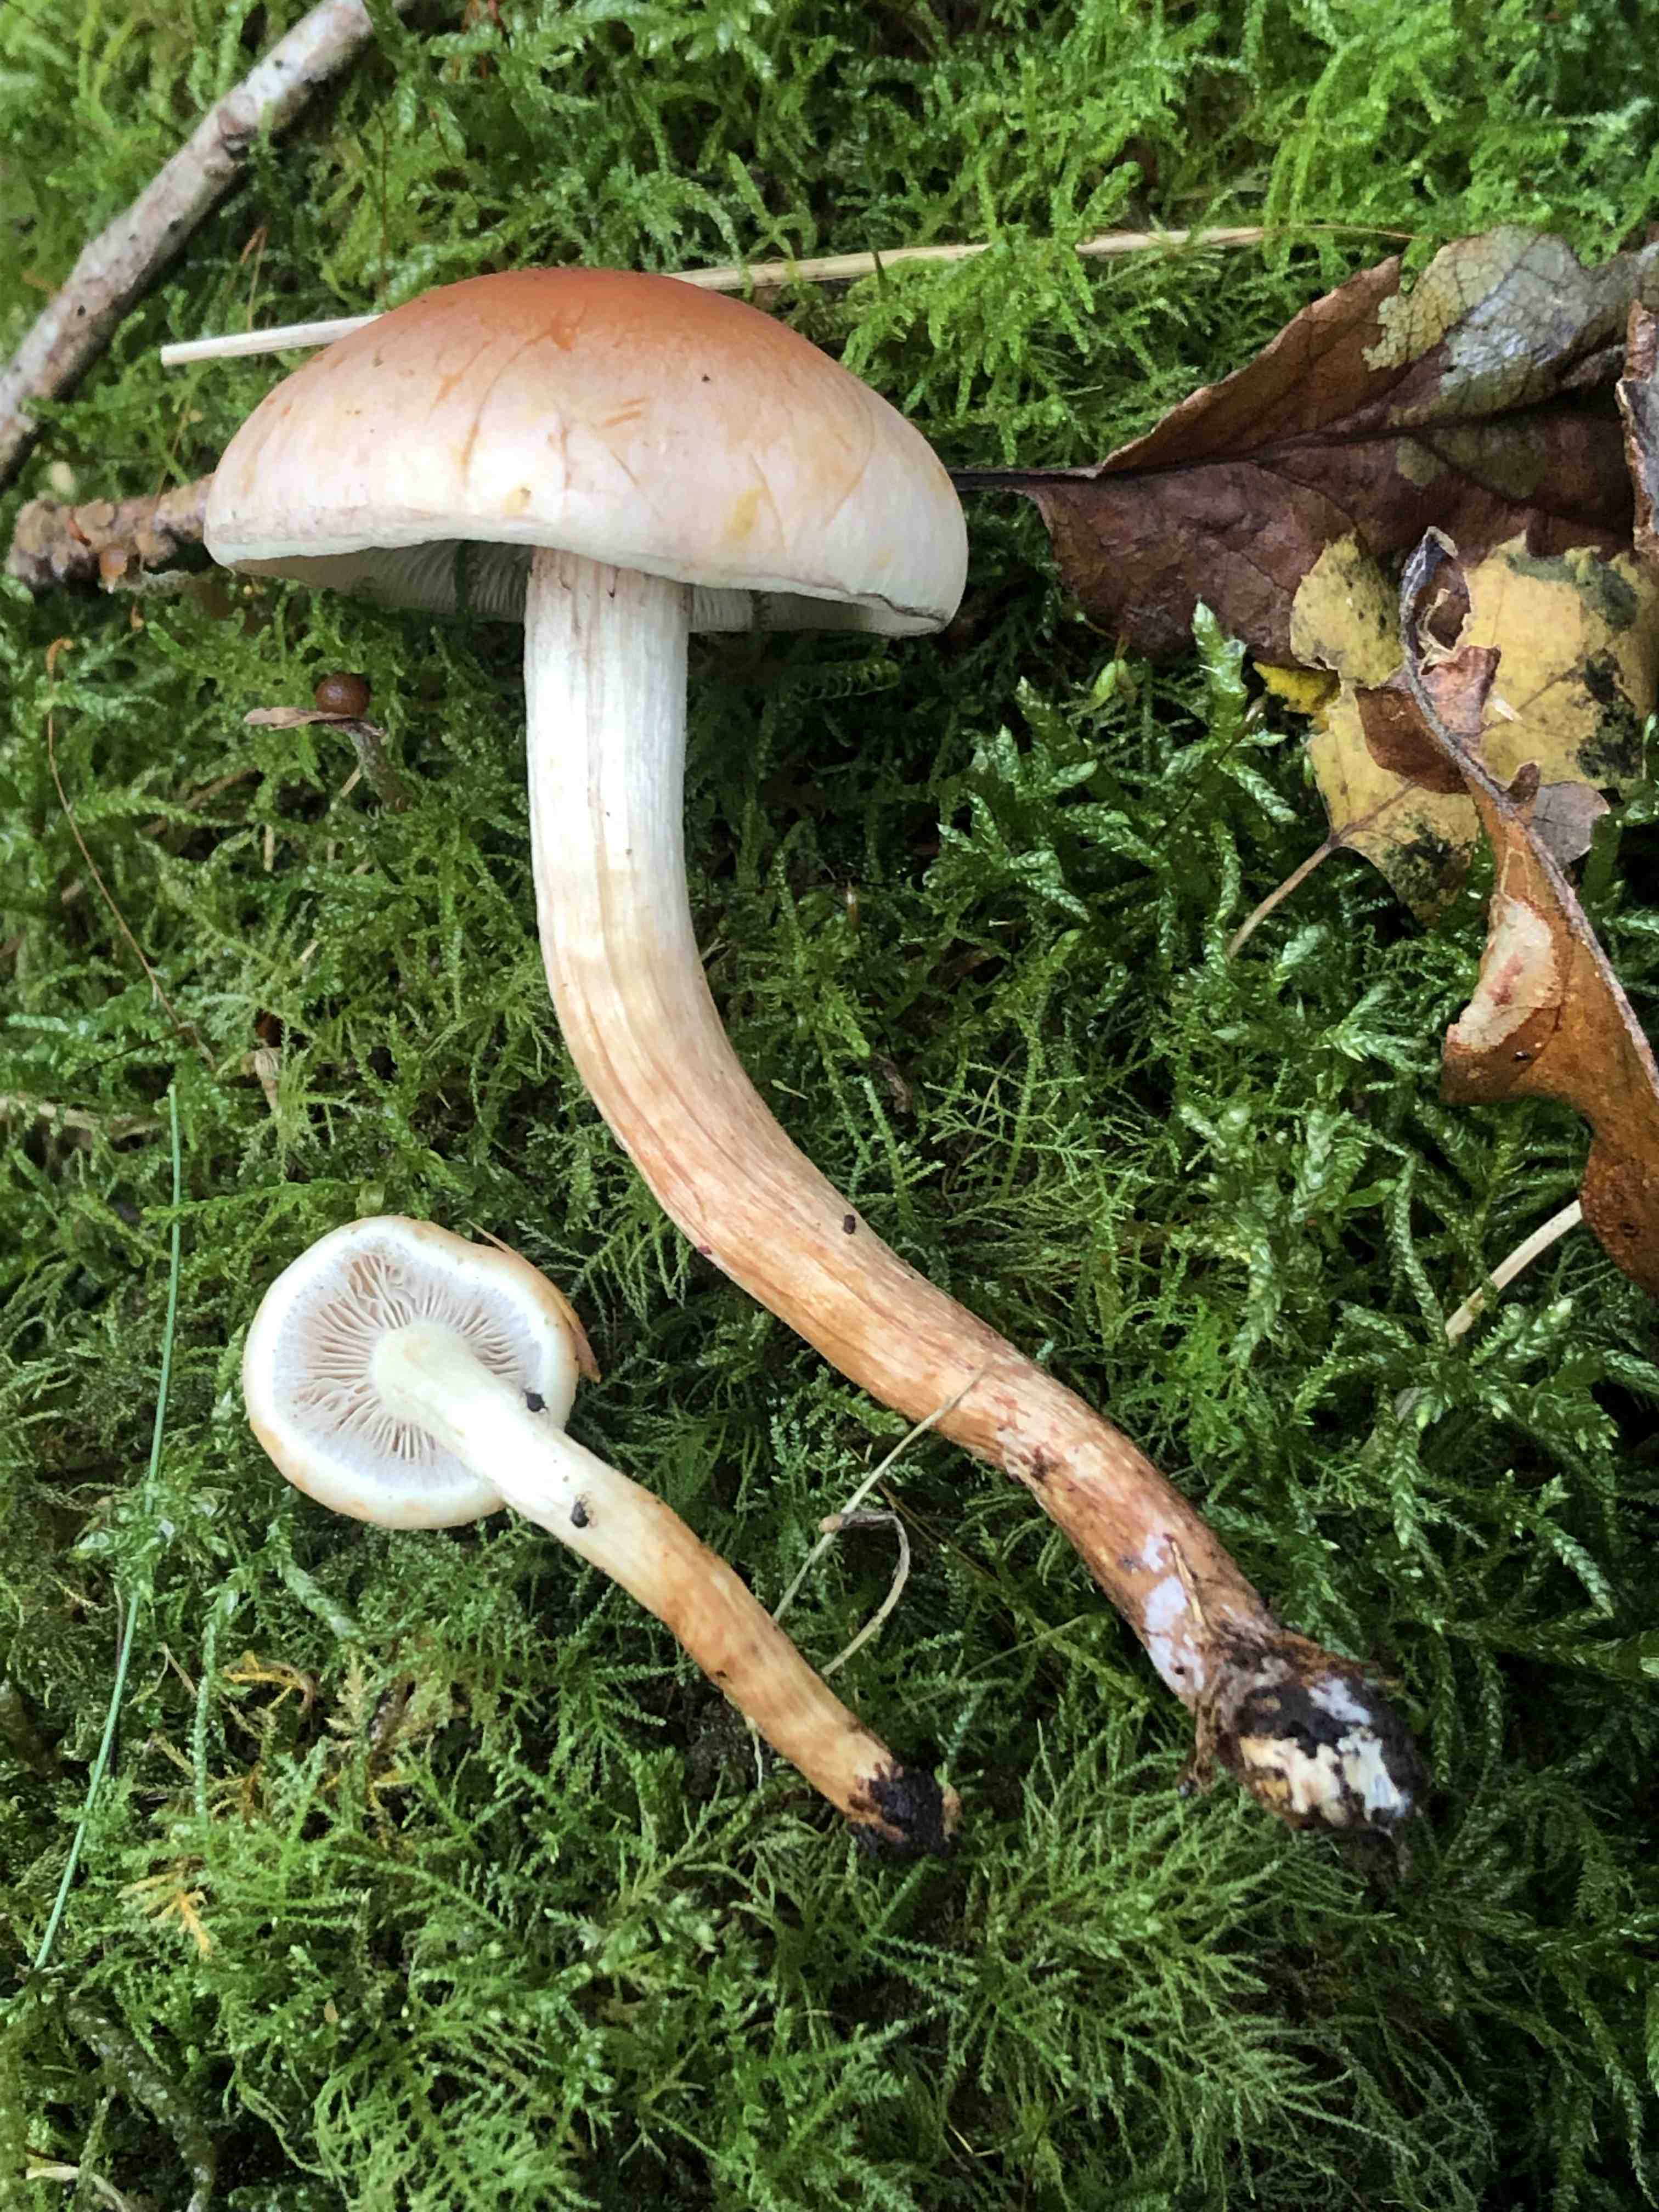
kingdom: Fungi
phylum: Basidiomycota
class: Agaricomycetes
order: Agaricales
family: Strophariaceae
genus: Hypholoma
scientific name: Hypholoma lateritium
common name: teglrød svovlhat
